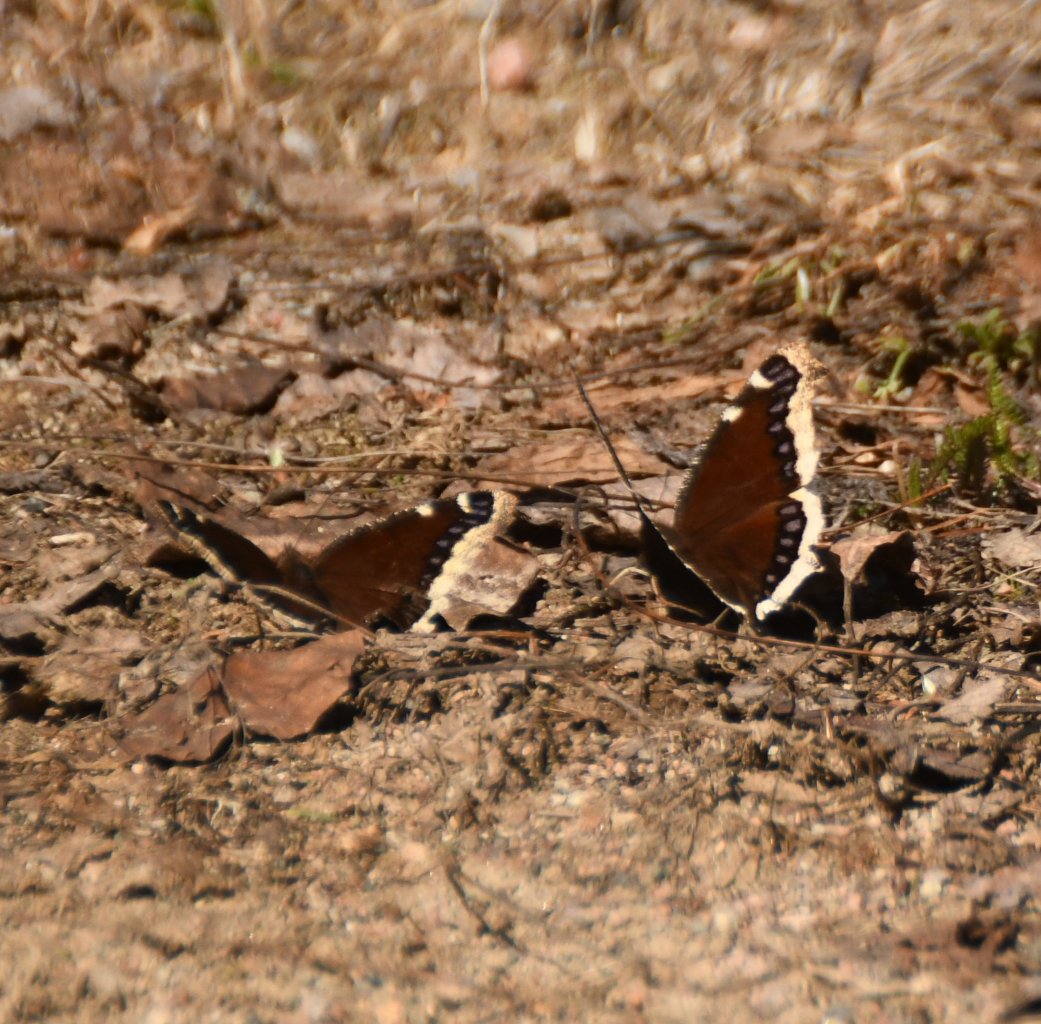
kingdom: Animalia
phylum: Arthropoda
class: Insecta
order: Lepidoptera
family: Nymphalidae
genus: Nymphalis
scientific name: Nymphalis antiopa
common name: Mourning Cloak
